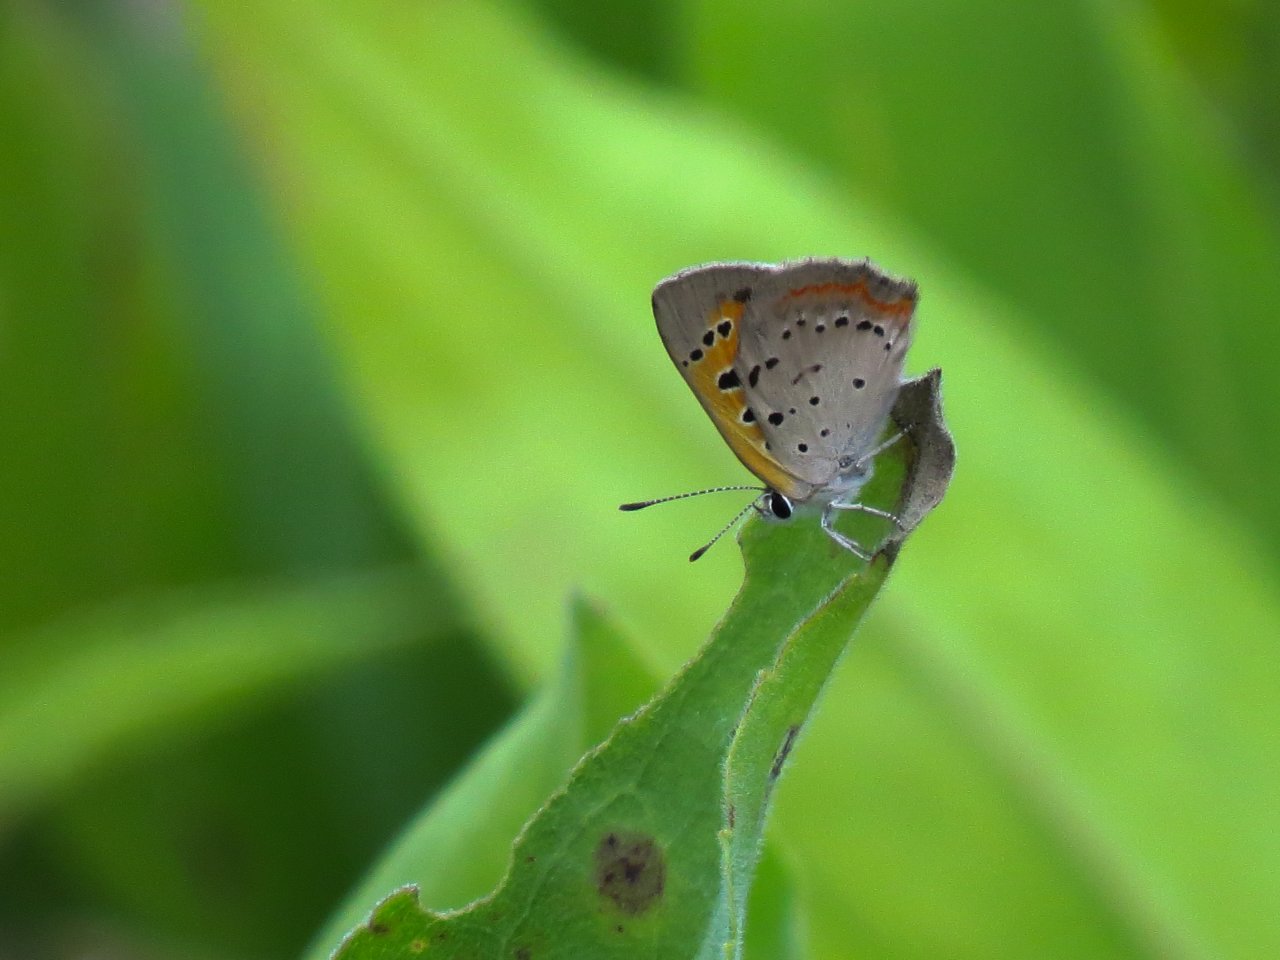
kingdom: Animalia
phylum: Arthropoda
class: Insecta
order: Lepidoptera
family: Lycaenidae
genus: Lycaena
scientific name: Lycaena phlaeas
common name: American Copper
